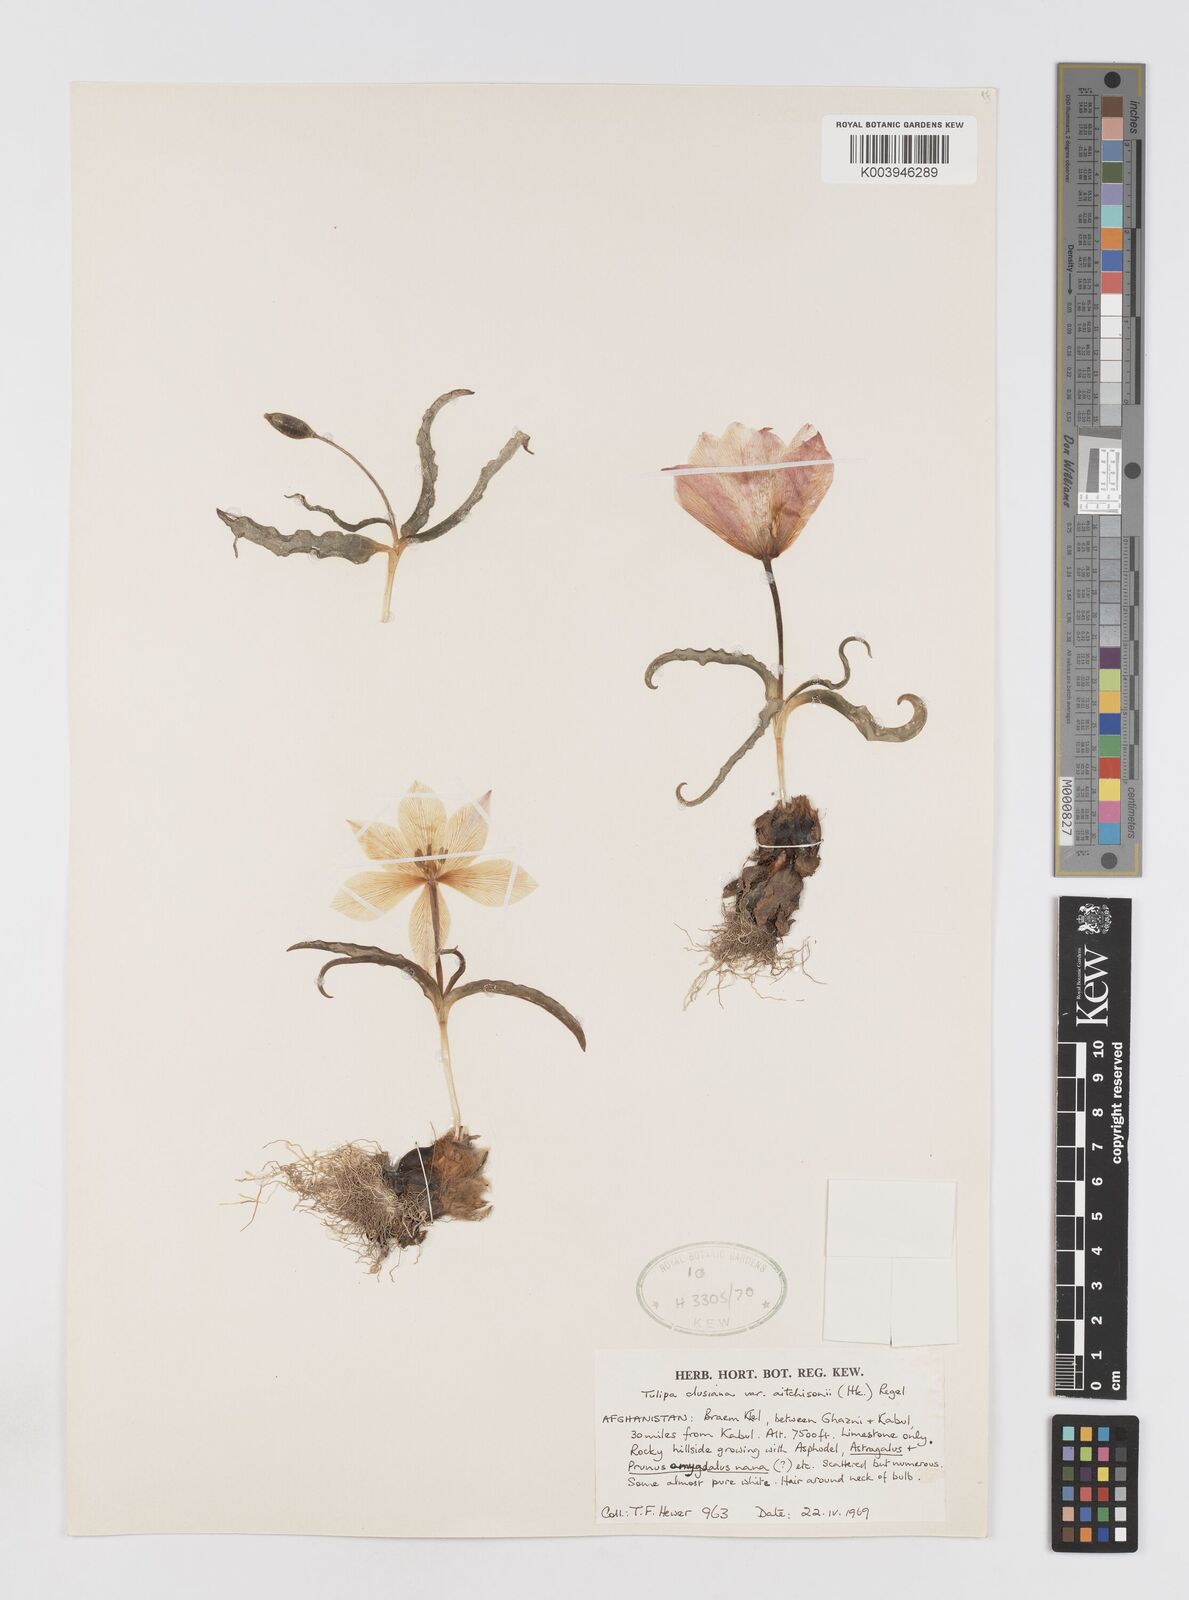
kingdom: Plantae
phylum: Tracheophyta
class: Liliopsida
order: Liliales
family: Liliaceae
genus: Tulipa
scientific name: Tulipa clusiana
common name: Lady tulip
